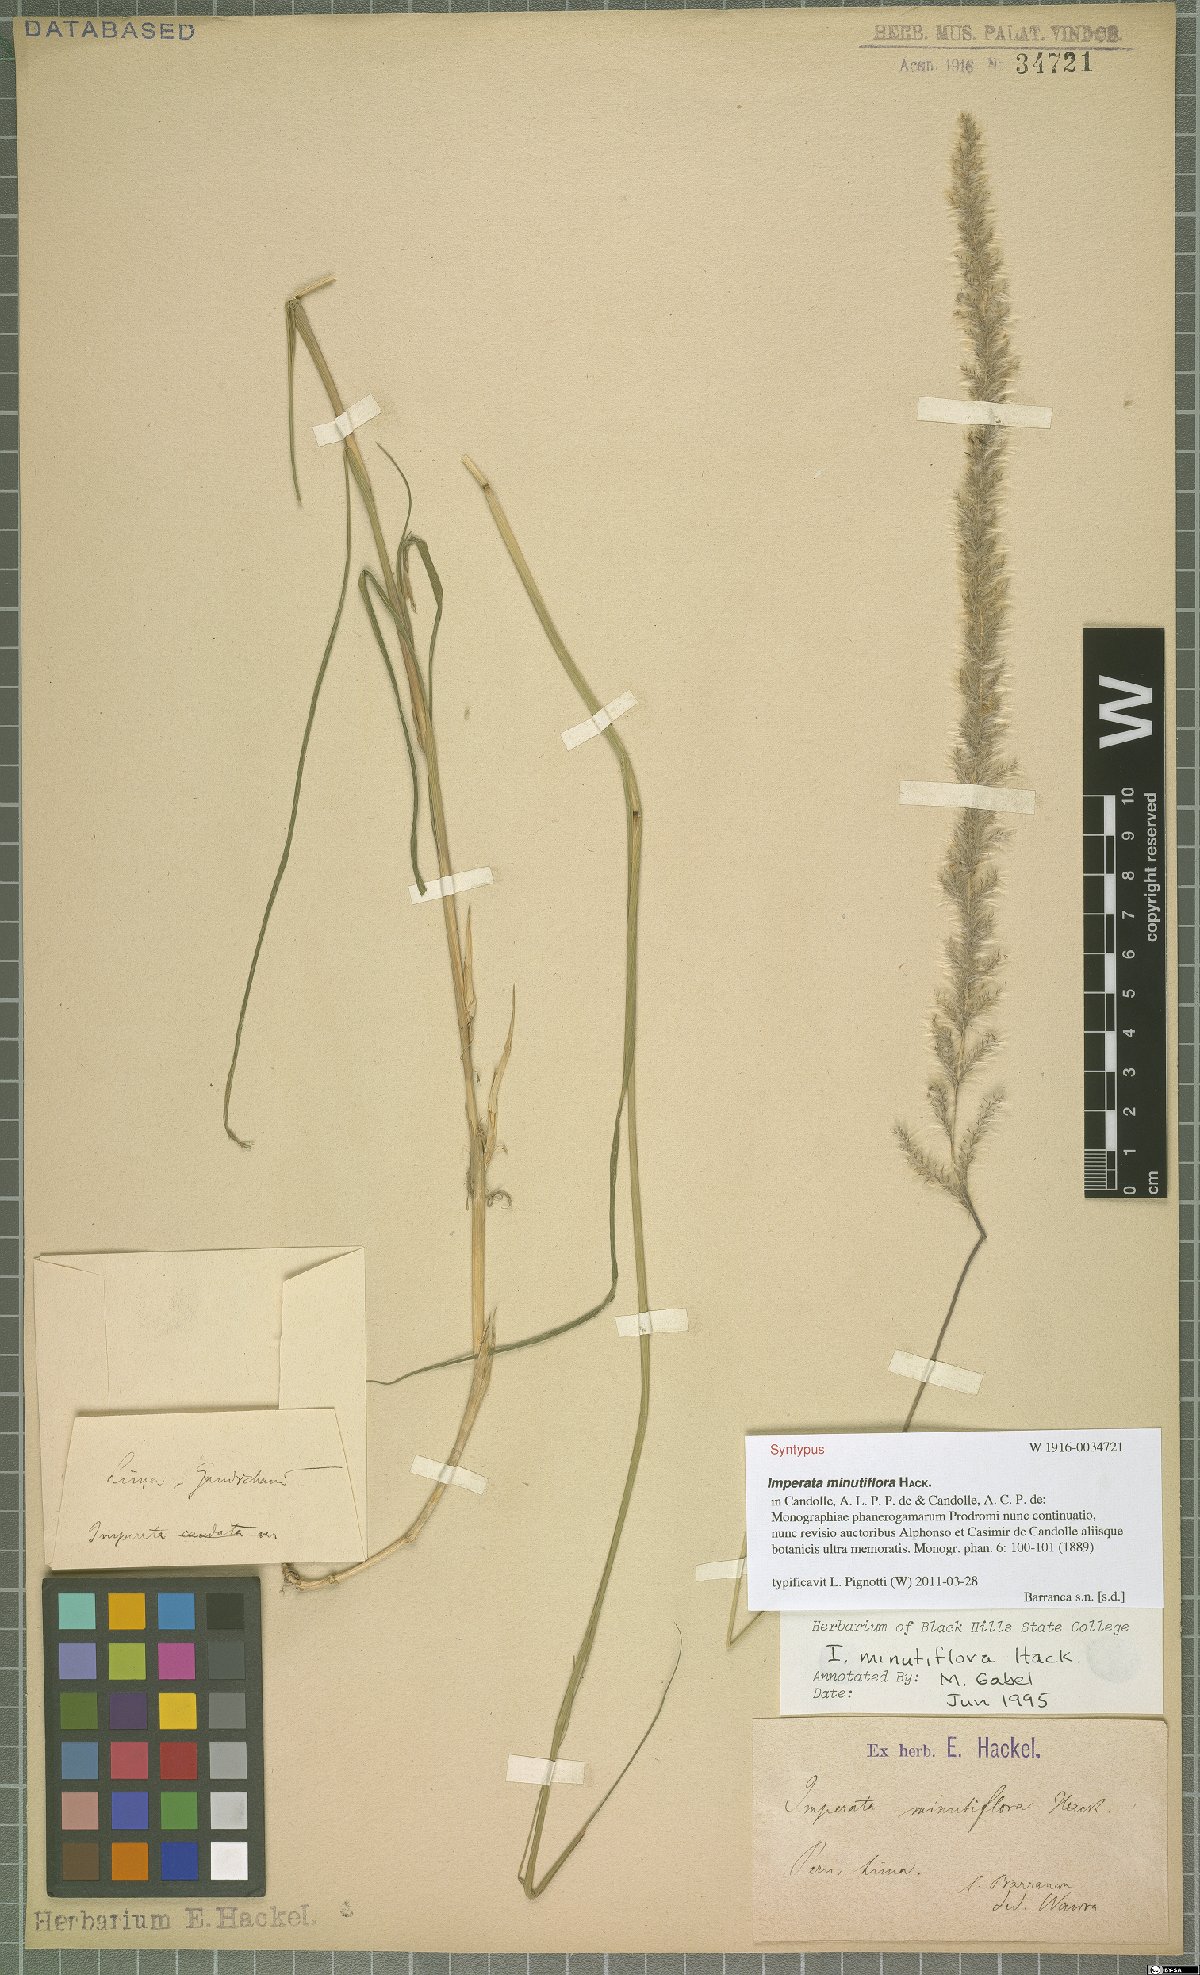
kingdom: Plantae
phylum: Tracheophyta
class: Liliopsida
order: Poales
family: Poaceae
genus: Imperata
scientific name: Imperata minutiflora
